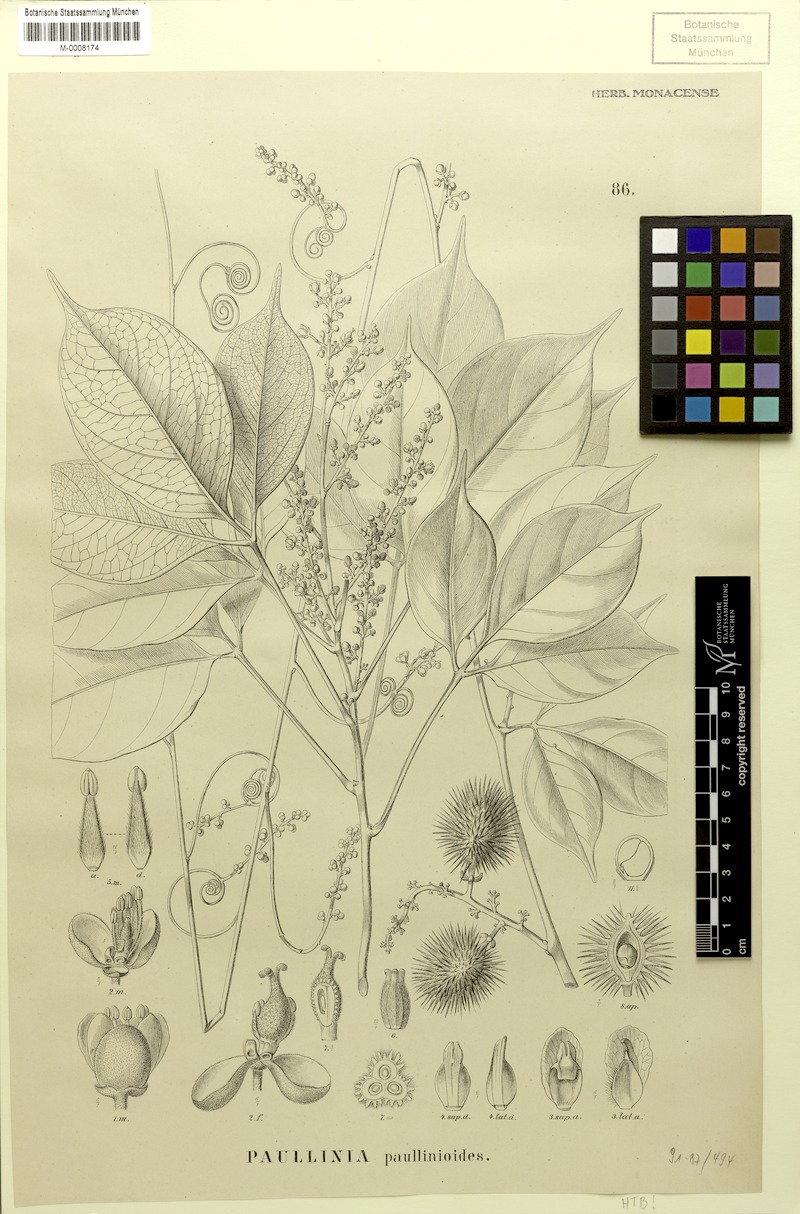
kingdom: Plantae
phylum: Tracheophyta
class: Magnoliopsida
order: Sapindales
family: Sapindaceae
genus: Paullinia
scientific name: Paullinia granatensis
